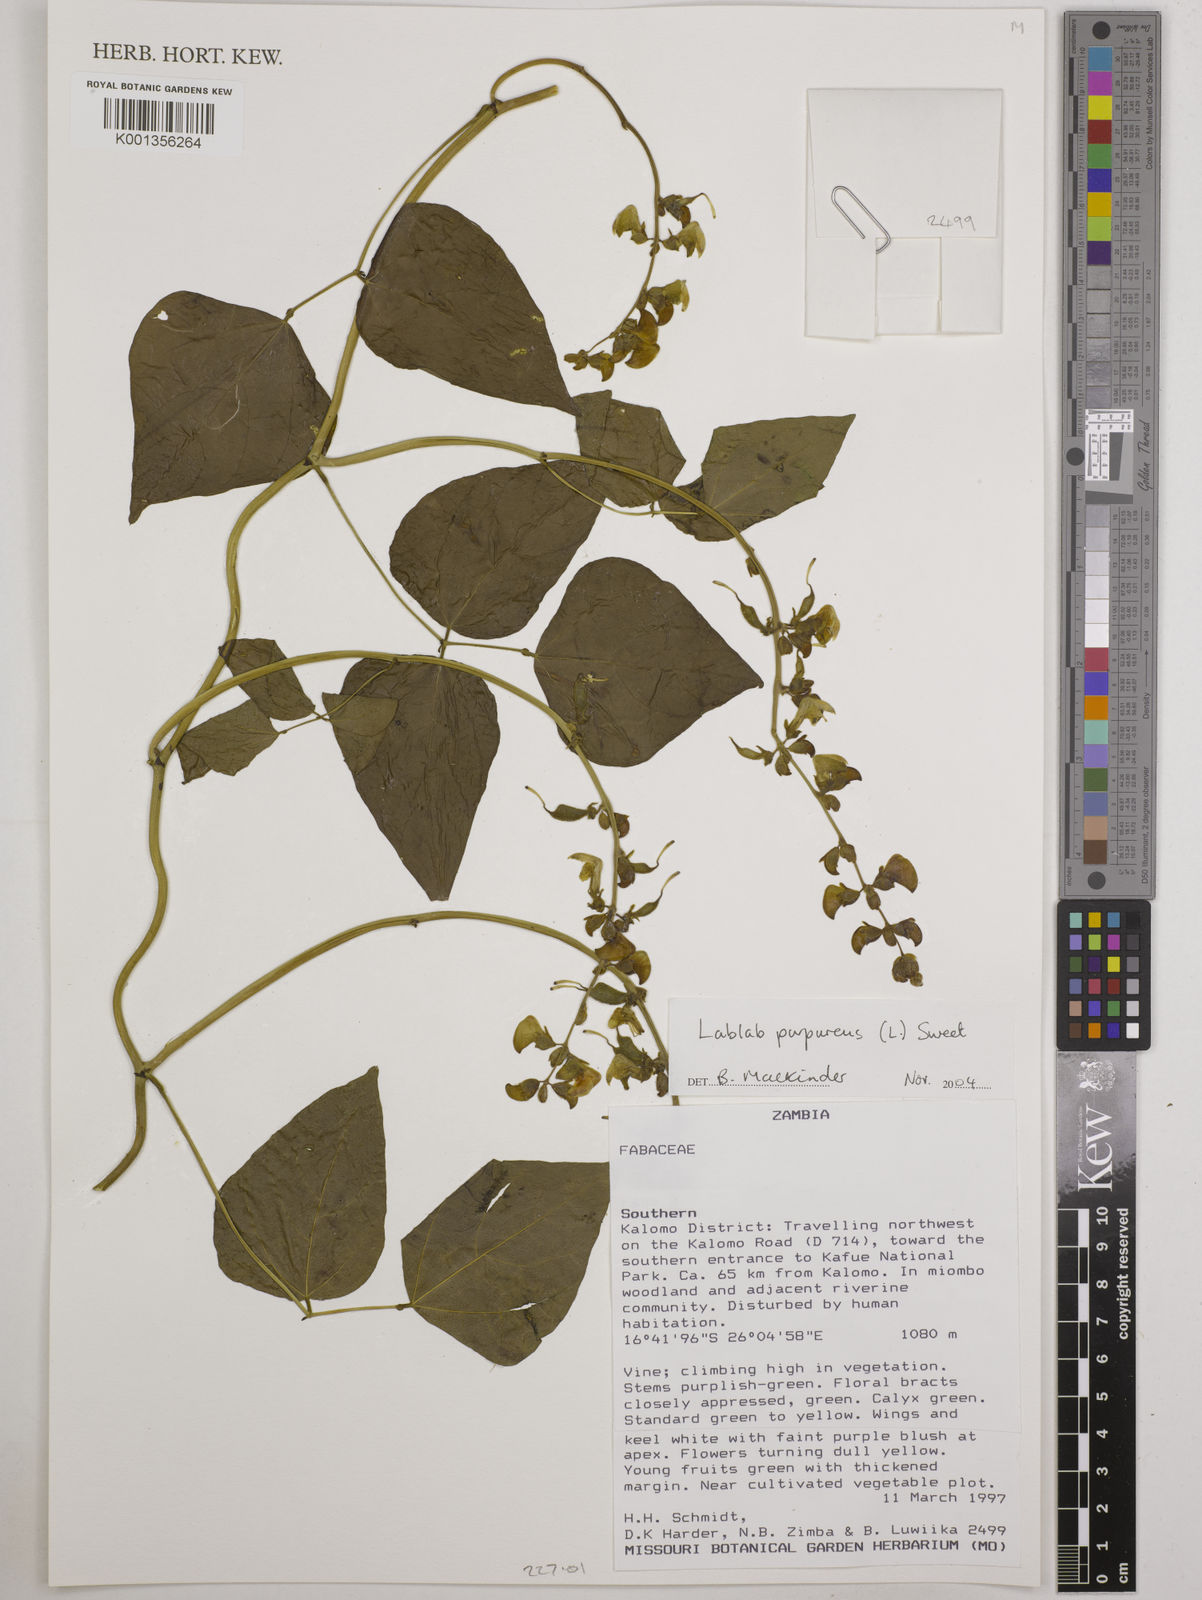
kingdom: Plantae
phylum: Tracheophyta
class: Magnoliopsida
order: Fabales
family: Fabaceae
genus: Lablab
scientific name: Lablab purpureus
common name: Lablab-bean
